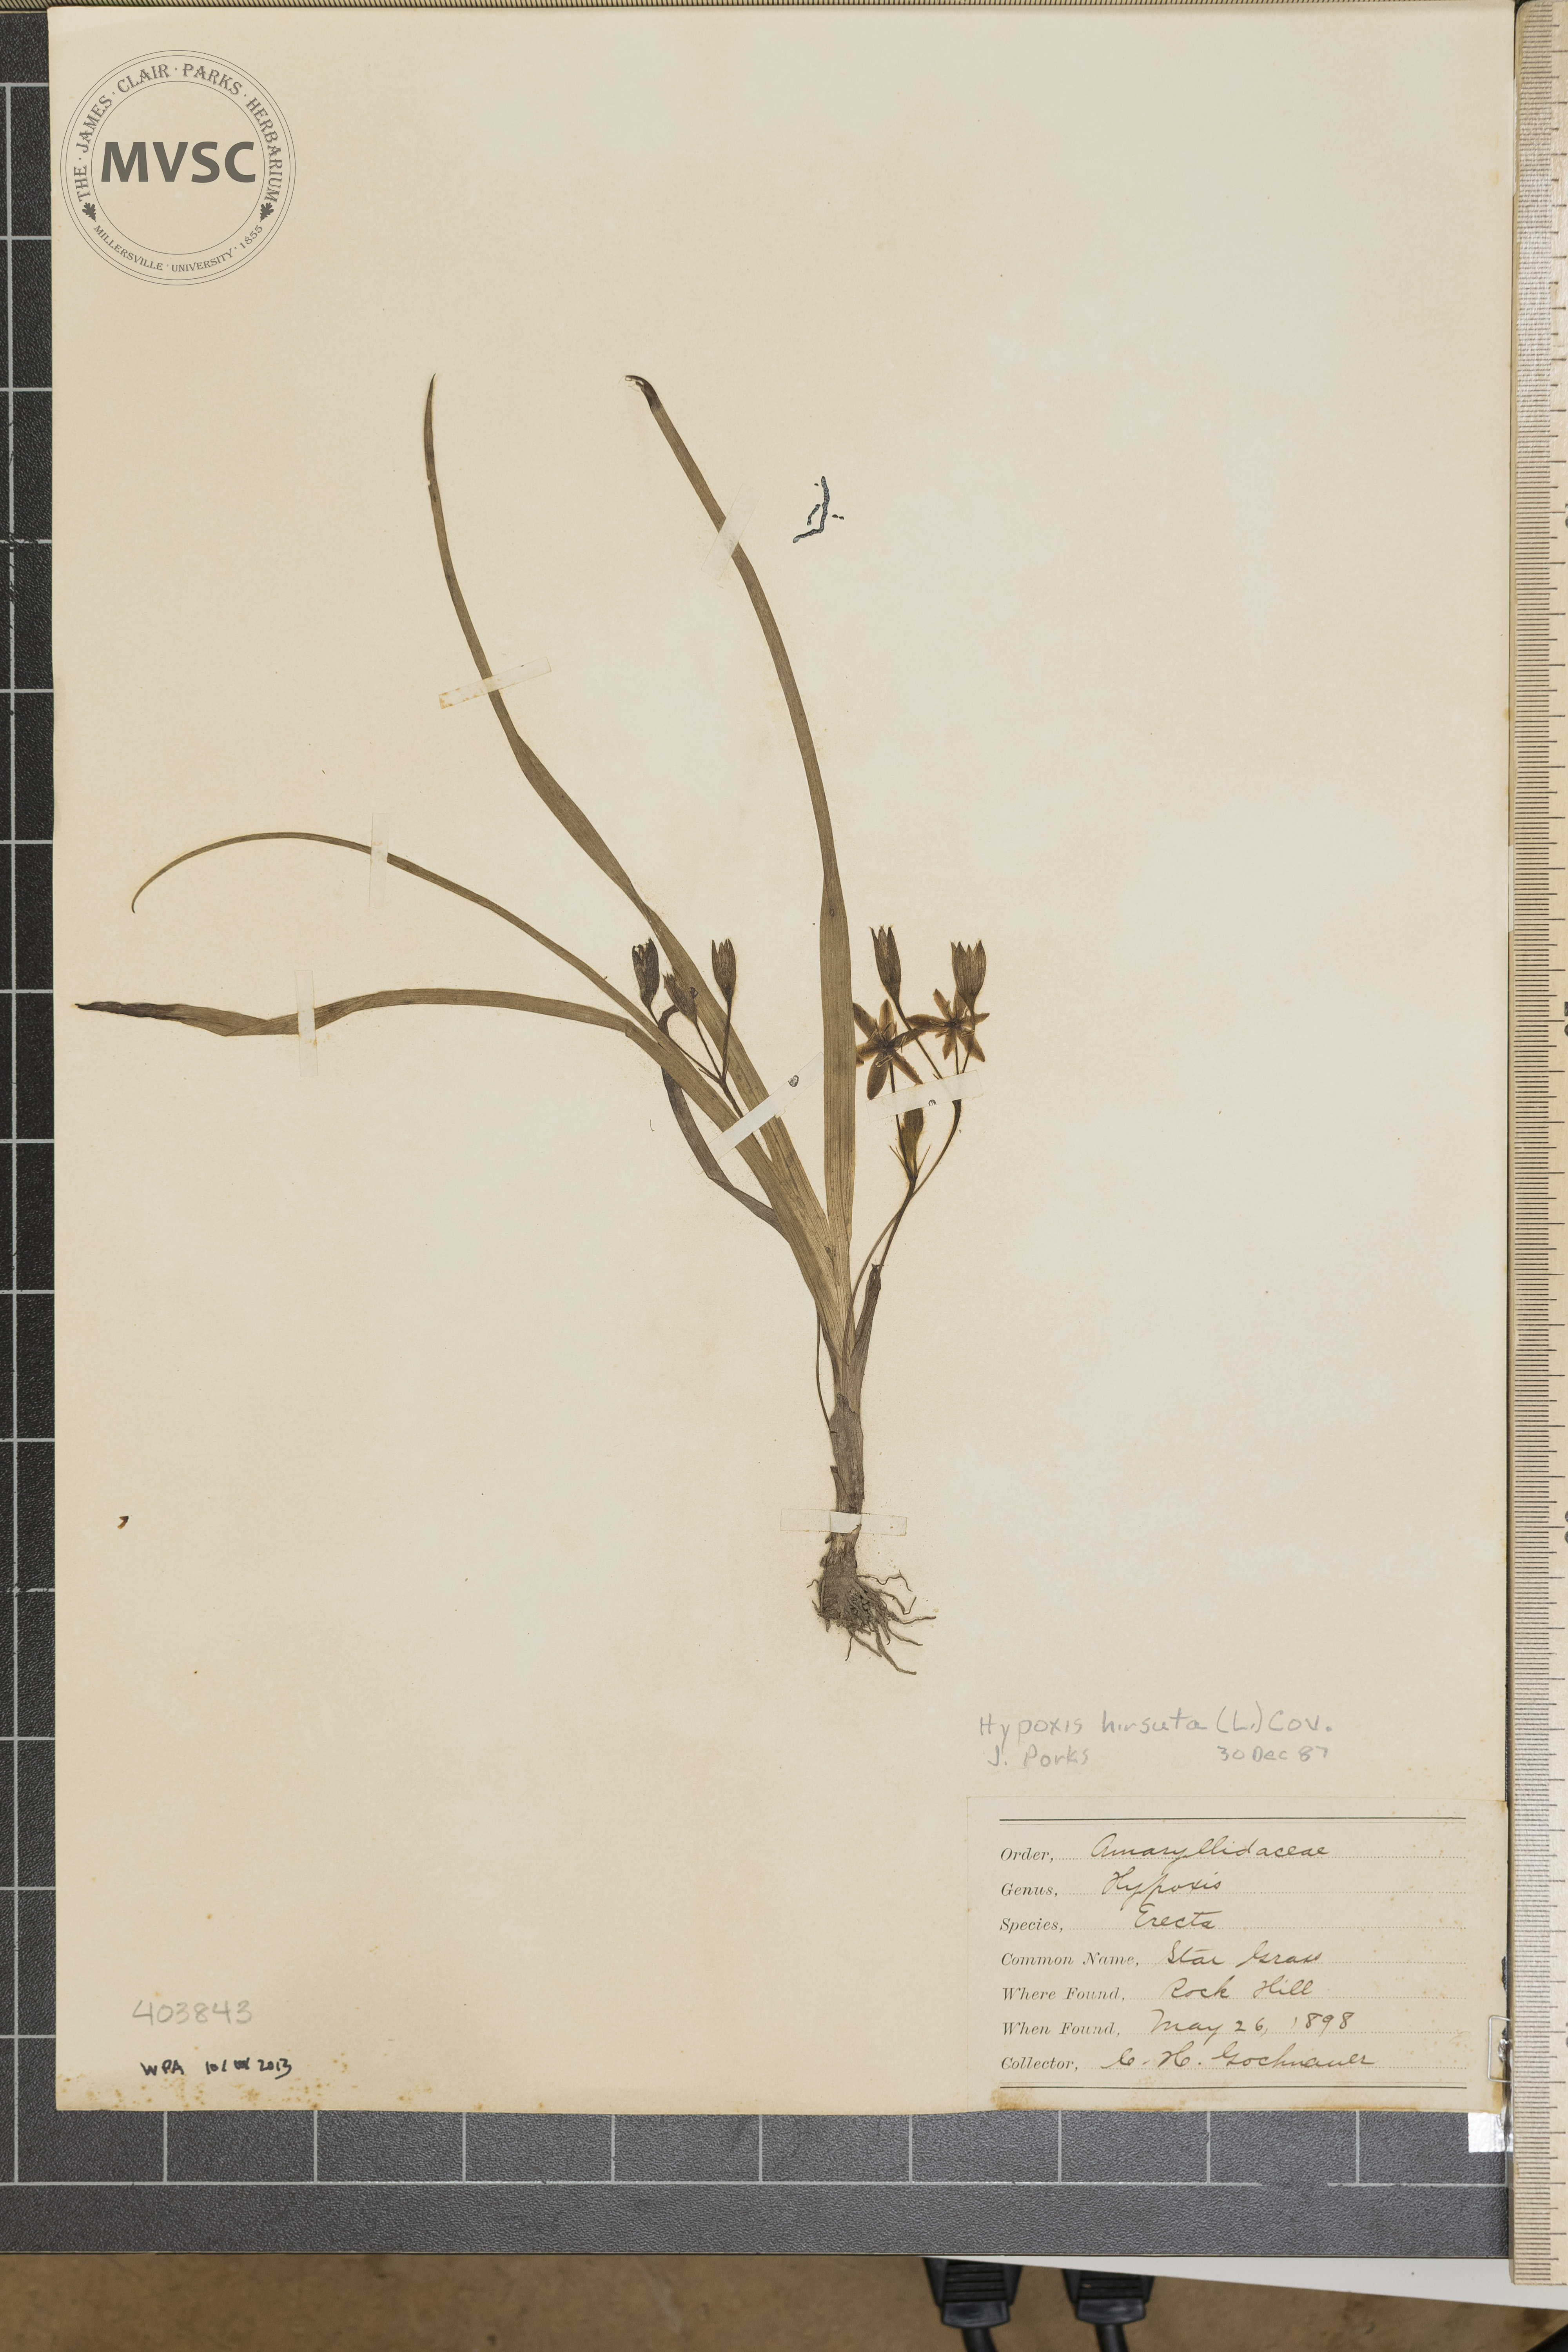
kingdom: Plantae
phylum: Tracheophyta
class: Liliopsida
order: Asparagales
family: Hypoxidaceae
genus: Hypoxis
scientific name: Hypoxis hirsuta
